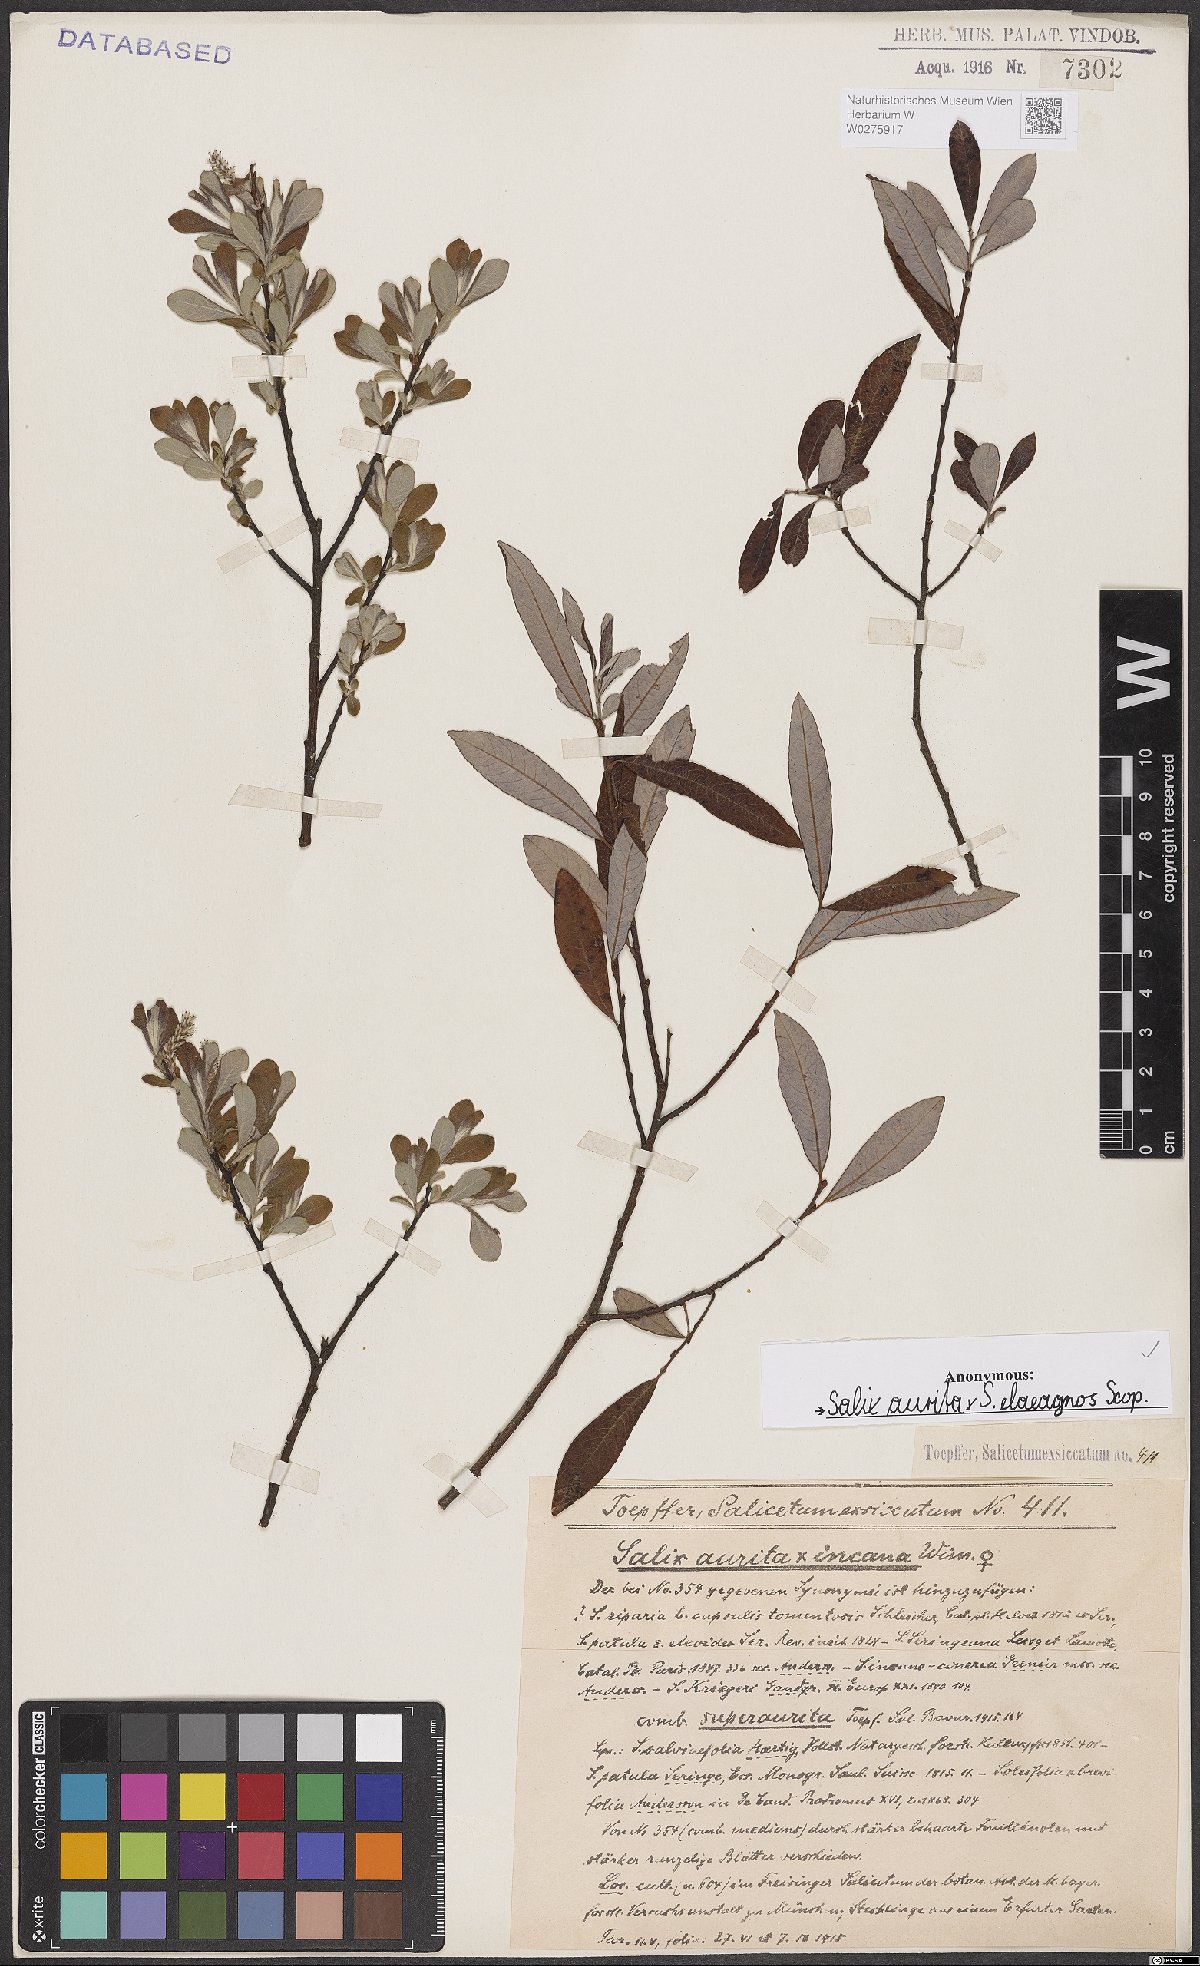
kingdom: Plantae
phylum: Tracheophyta
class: Magnoliopsida
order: Malpighiales
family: Salicaceae
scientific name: Salicaceae
